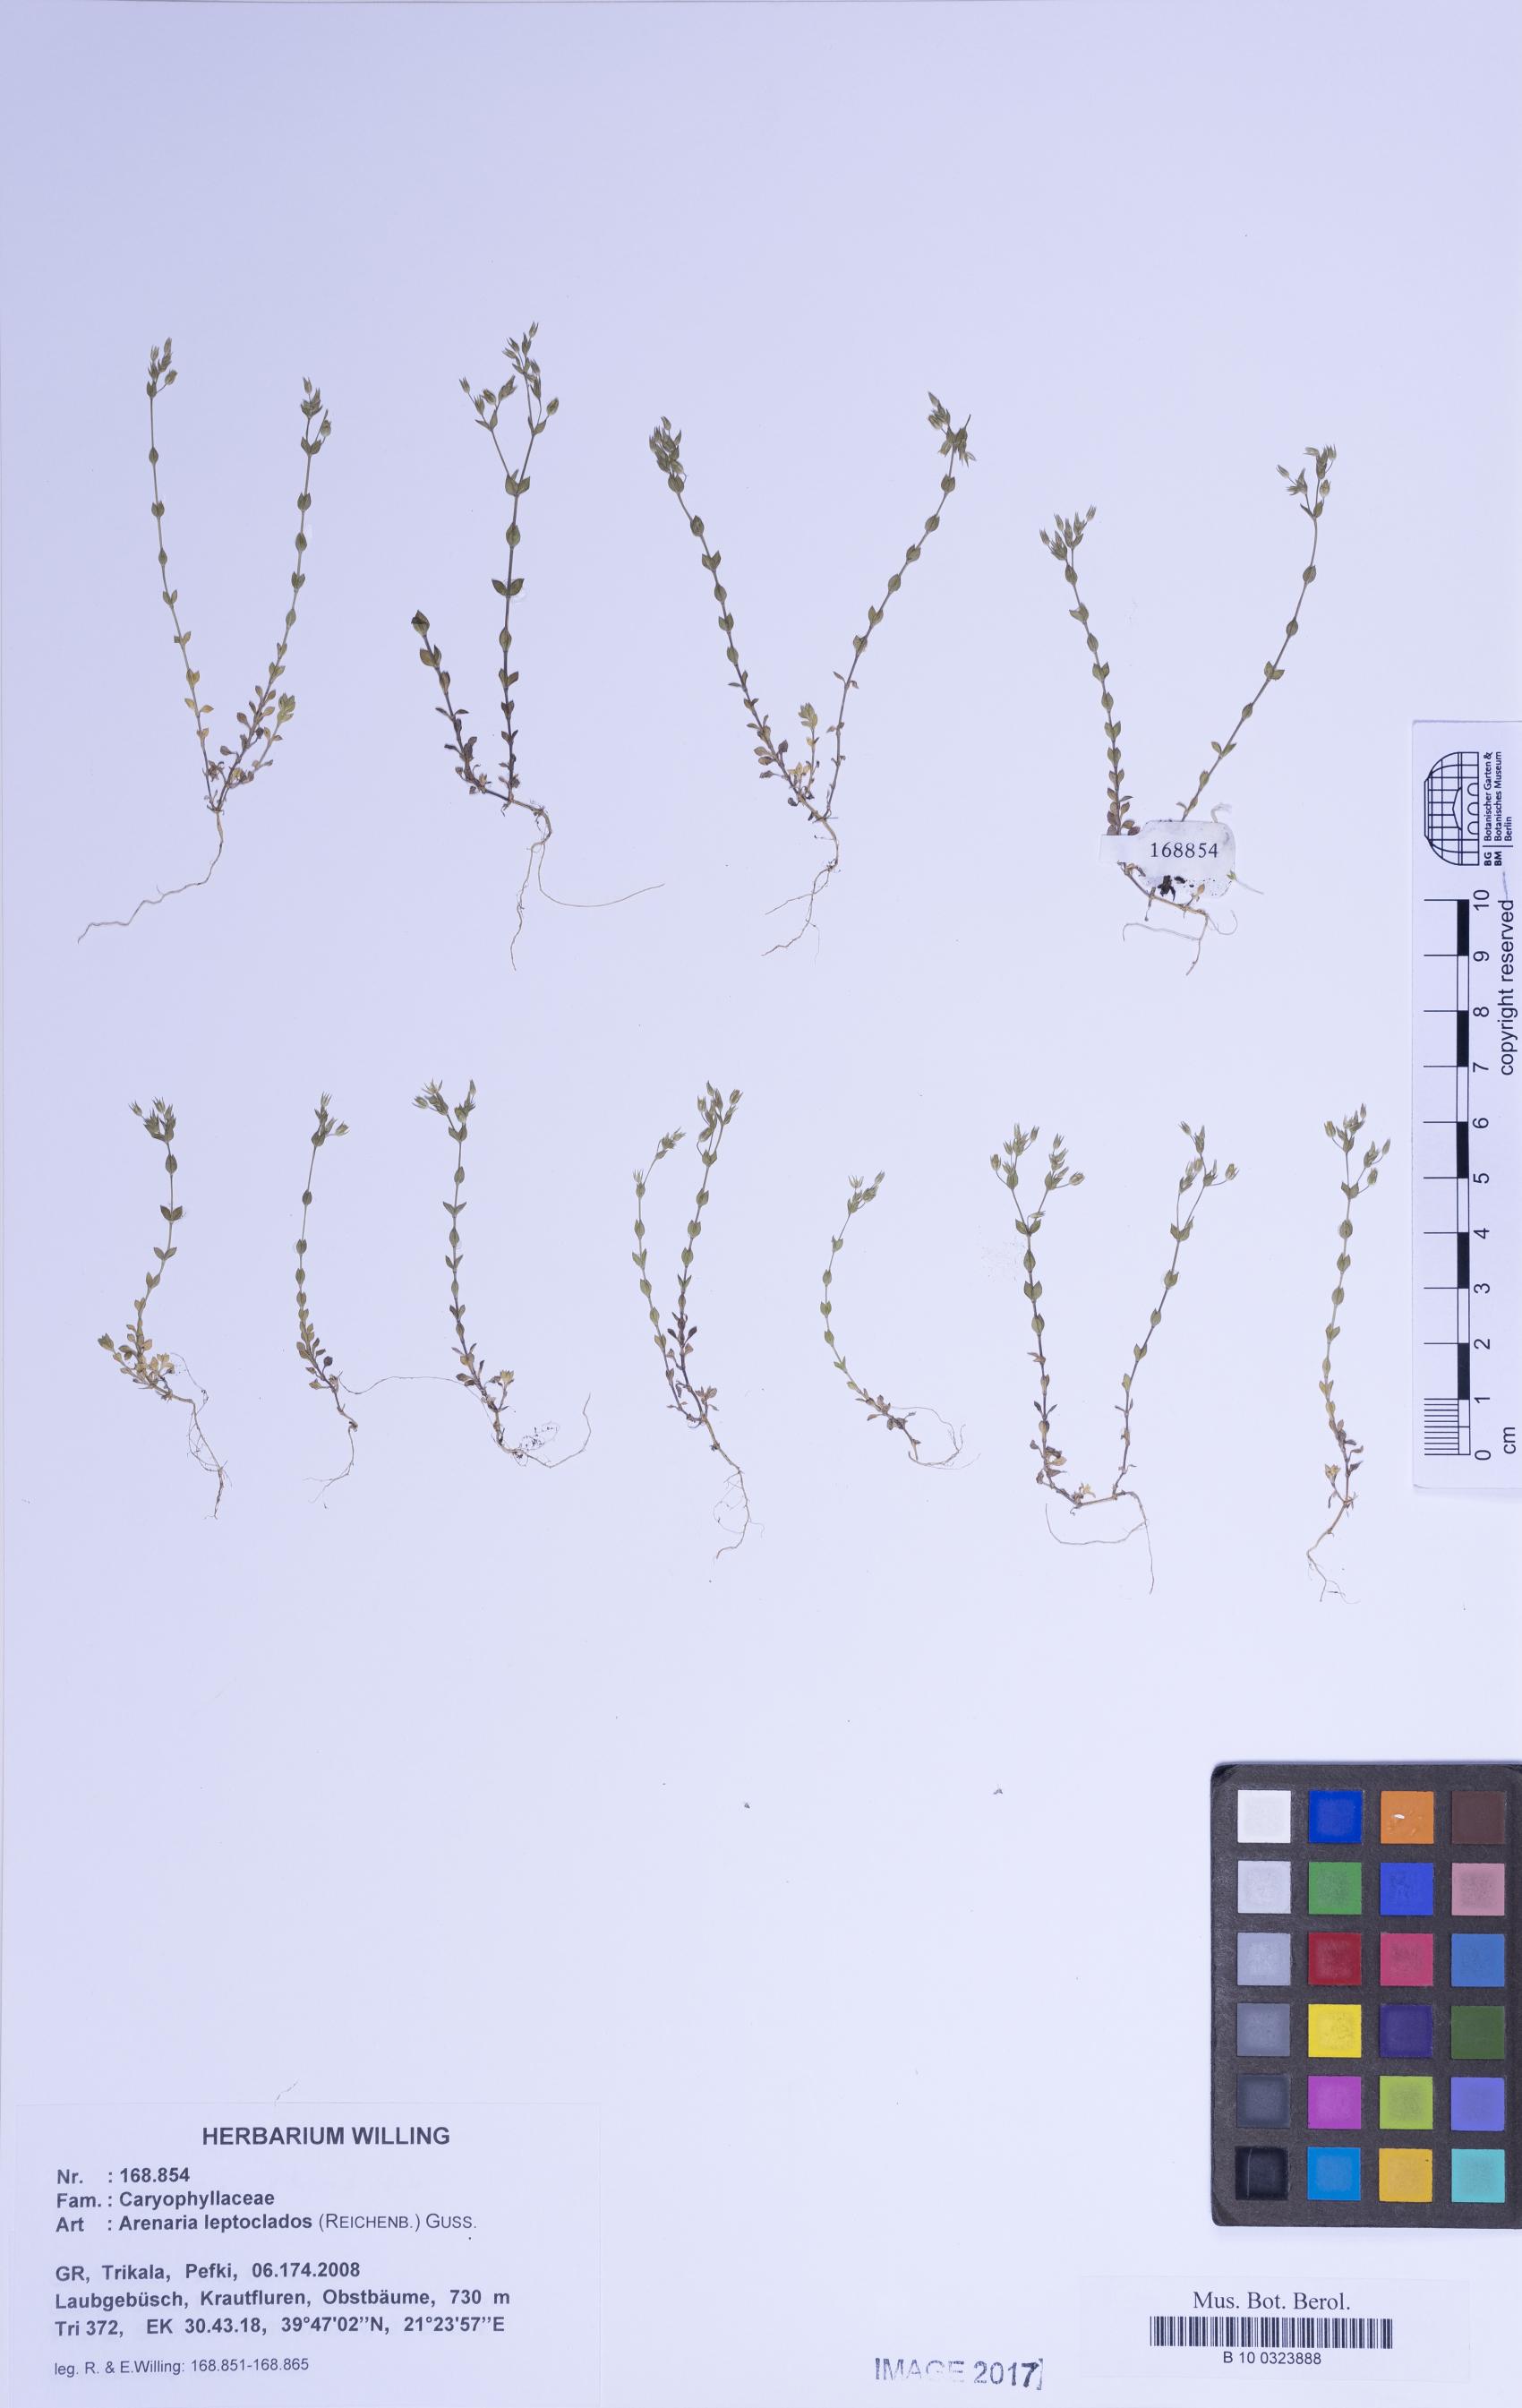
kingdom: Plantae
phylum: Tracheophyta
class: Magnoliopsida
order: Caryophyllales
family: Caryophyllaceae
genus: Arenaria
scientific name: Arenaria leptoclados
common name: Thyme-leaved sandwort
